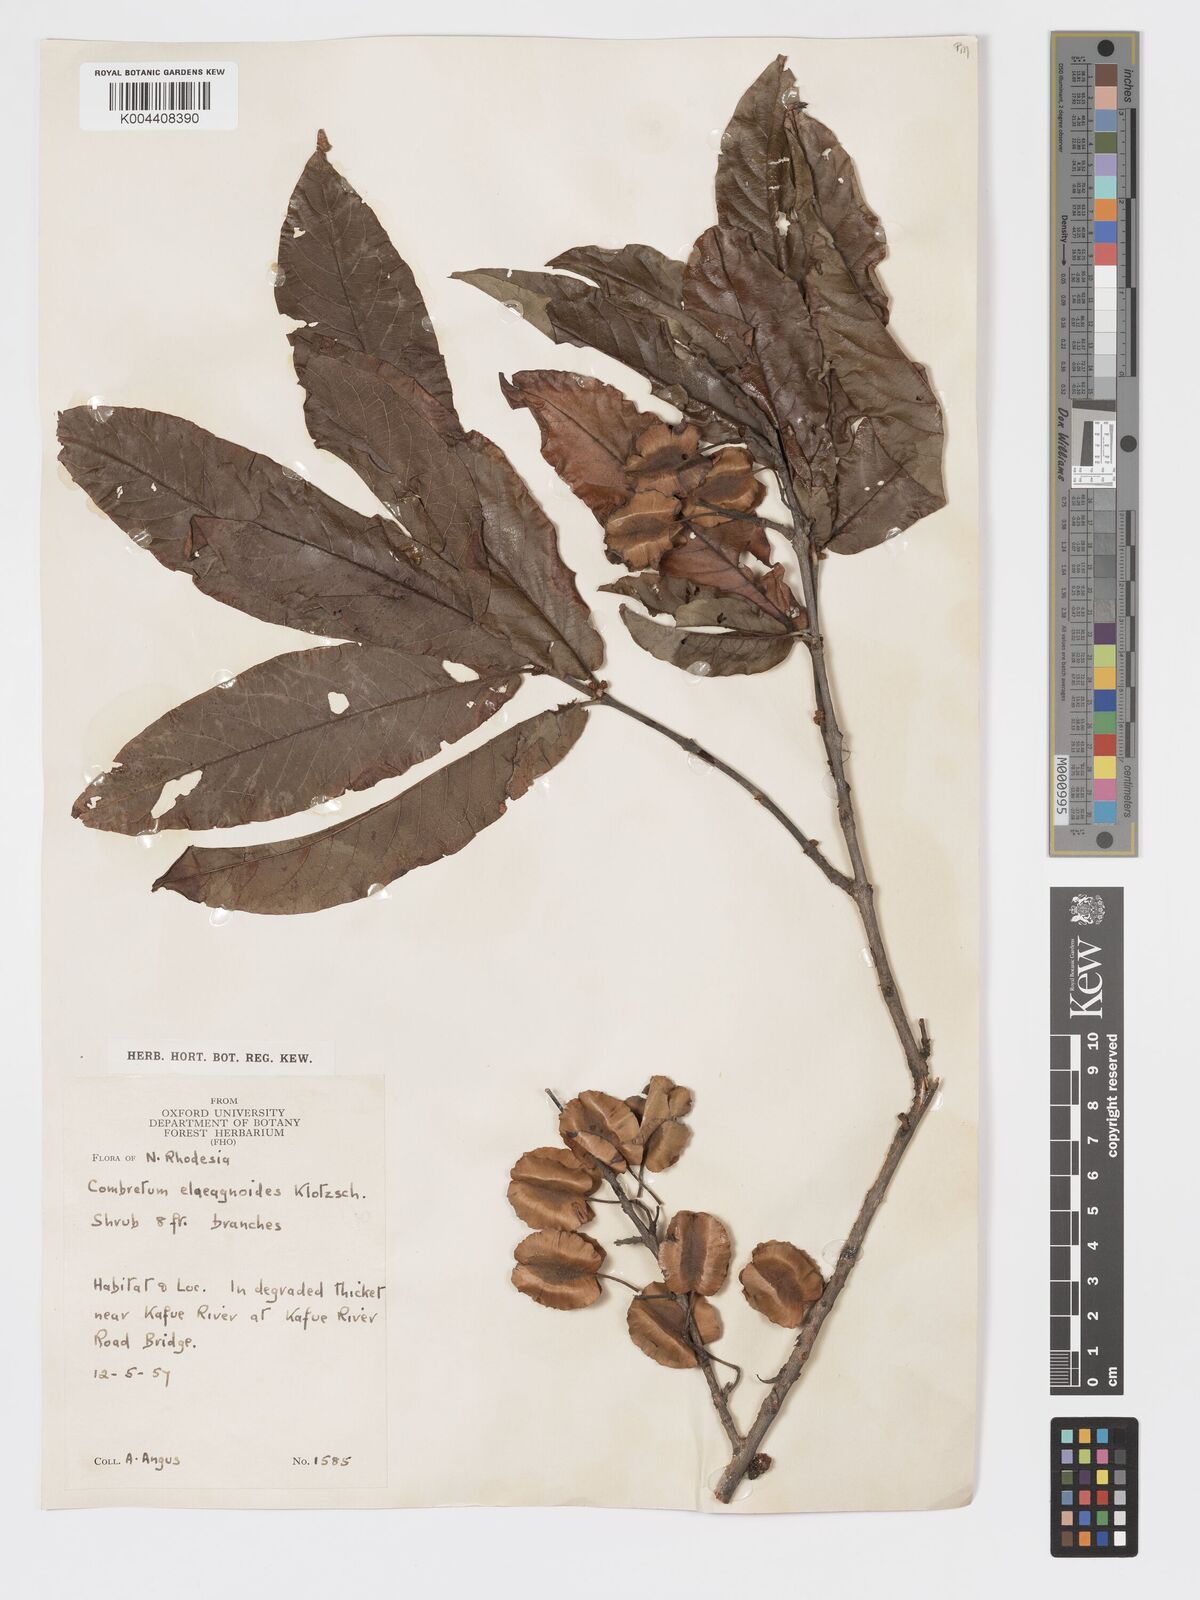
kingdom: Plantae
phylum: Tracheophyta
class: Magnoliopsida
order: Myrtales
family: Combretaceae
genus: Combretum
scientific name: Combretum elaeagnoides
